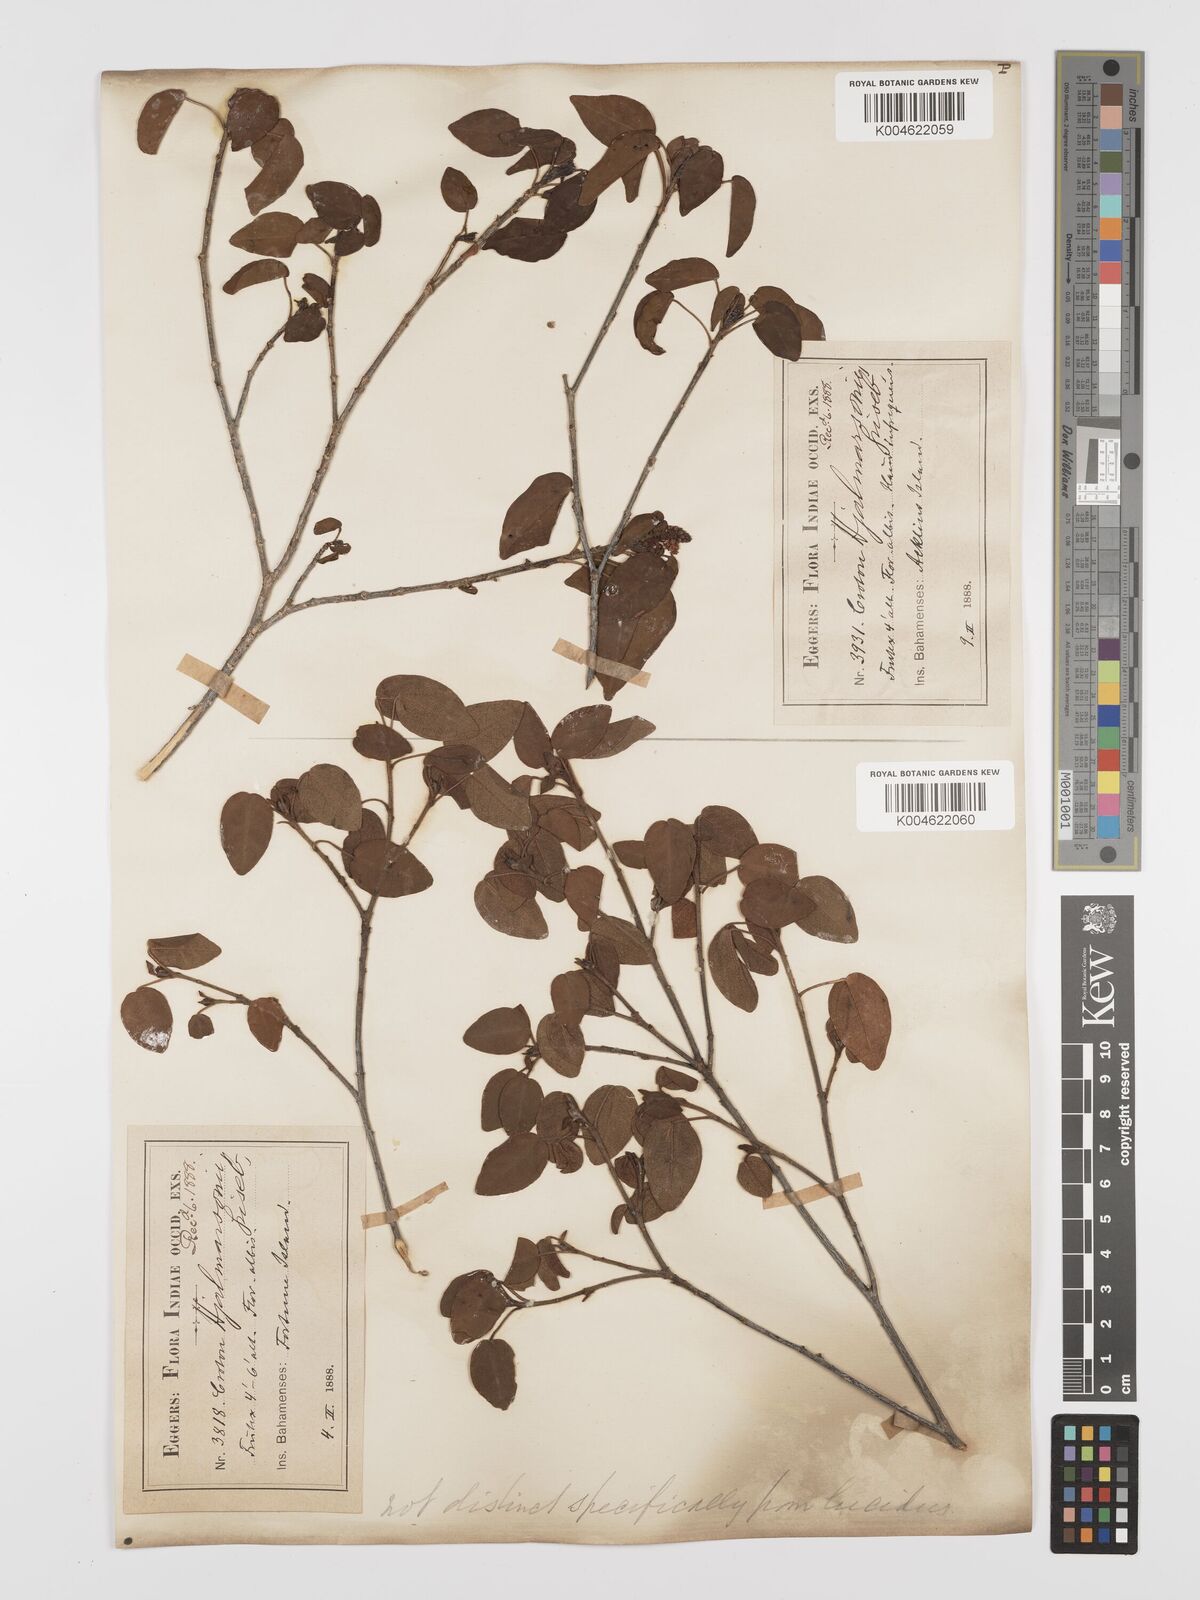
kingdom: Plantae
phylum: Tracheophyta
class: Magnoliopsida
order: Malpighiales
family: Euphorbiaceae
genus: Croton
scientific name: Croton glabellus
